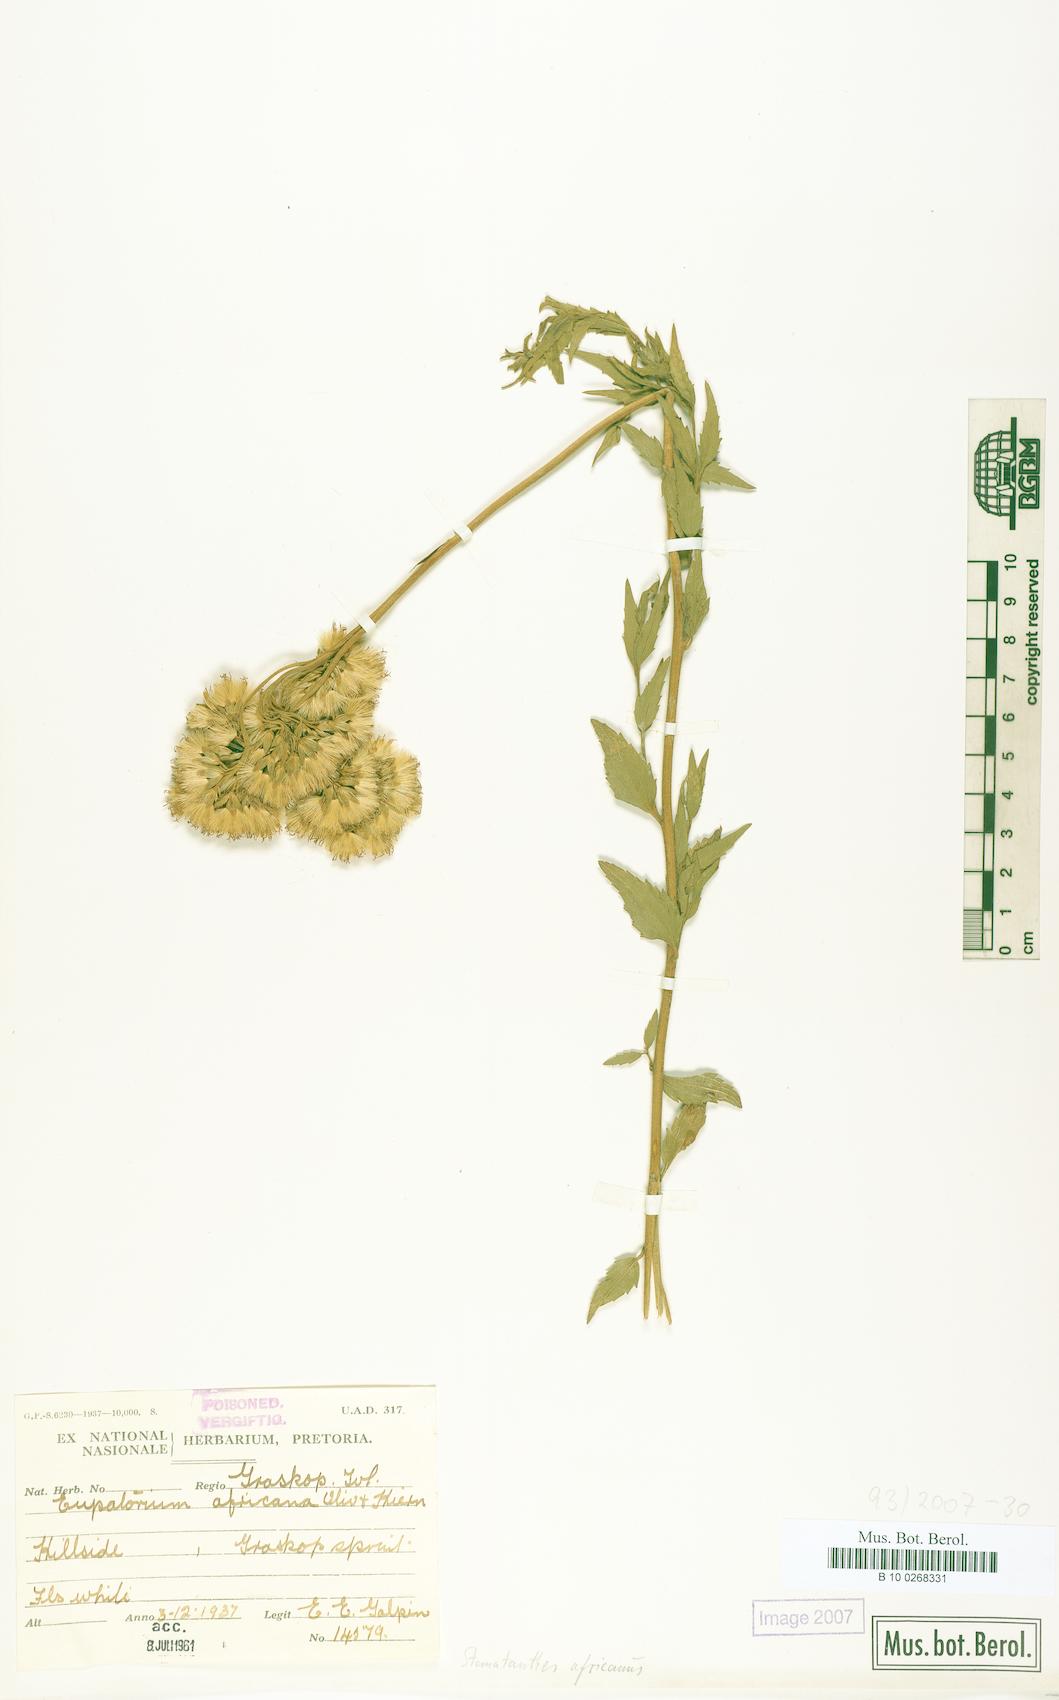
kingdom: Plantae
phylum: Tracheophyta
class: Magnoliopsida
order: Asterales
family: Asteraceae
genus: Stomatanthes
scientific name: Stomatanthes africanus
